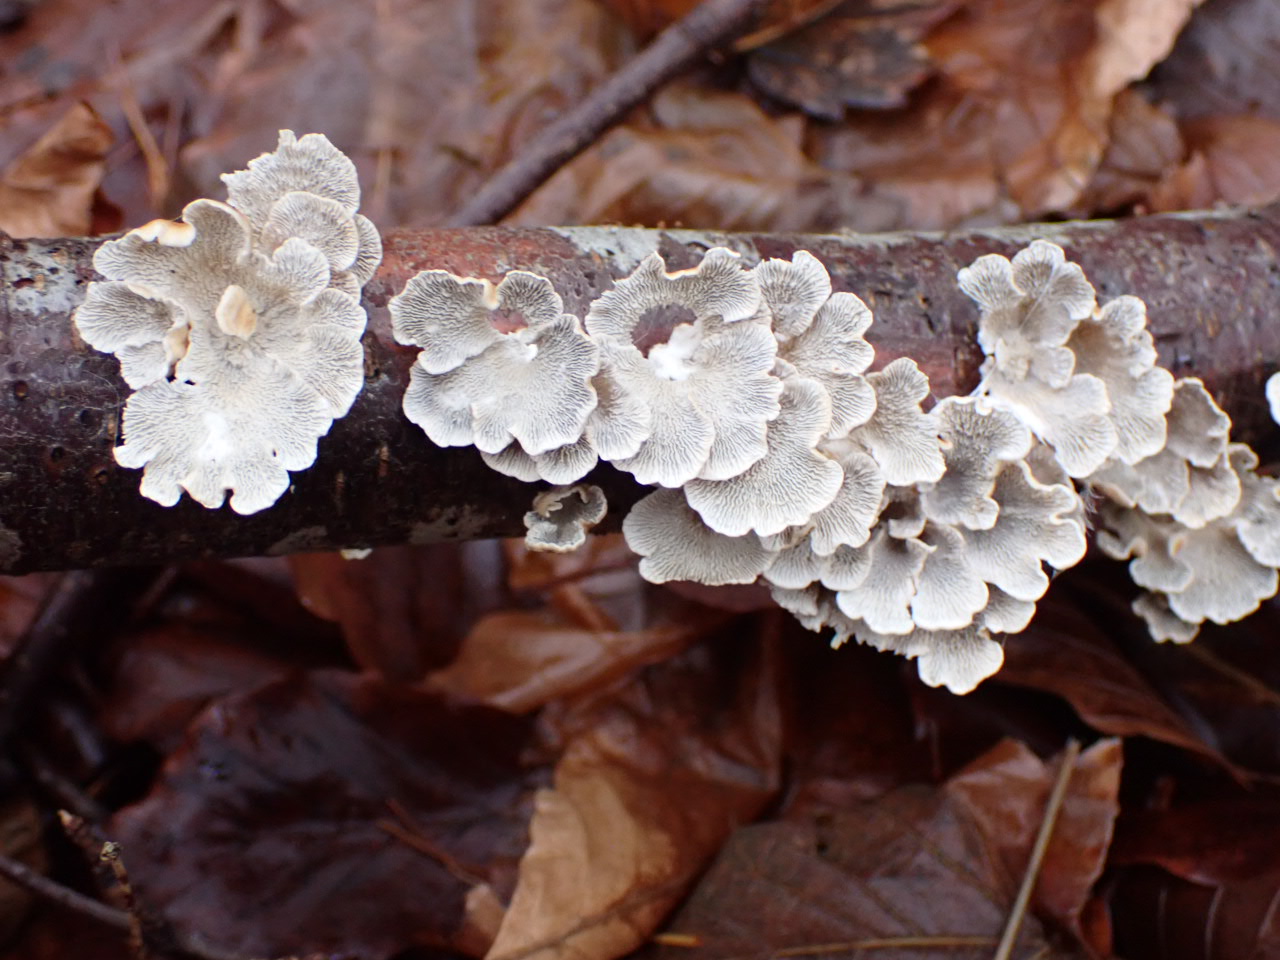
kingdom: Fungi
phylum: Basidiomycota
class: Agaricomycetes
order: Amylocorticiales
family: Amylocorticiaceae
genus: Plicaturopsis
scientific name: Plicaturopsis crispa
